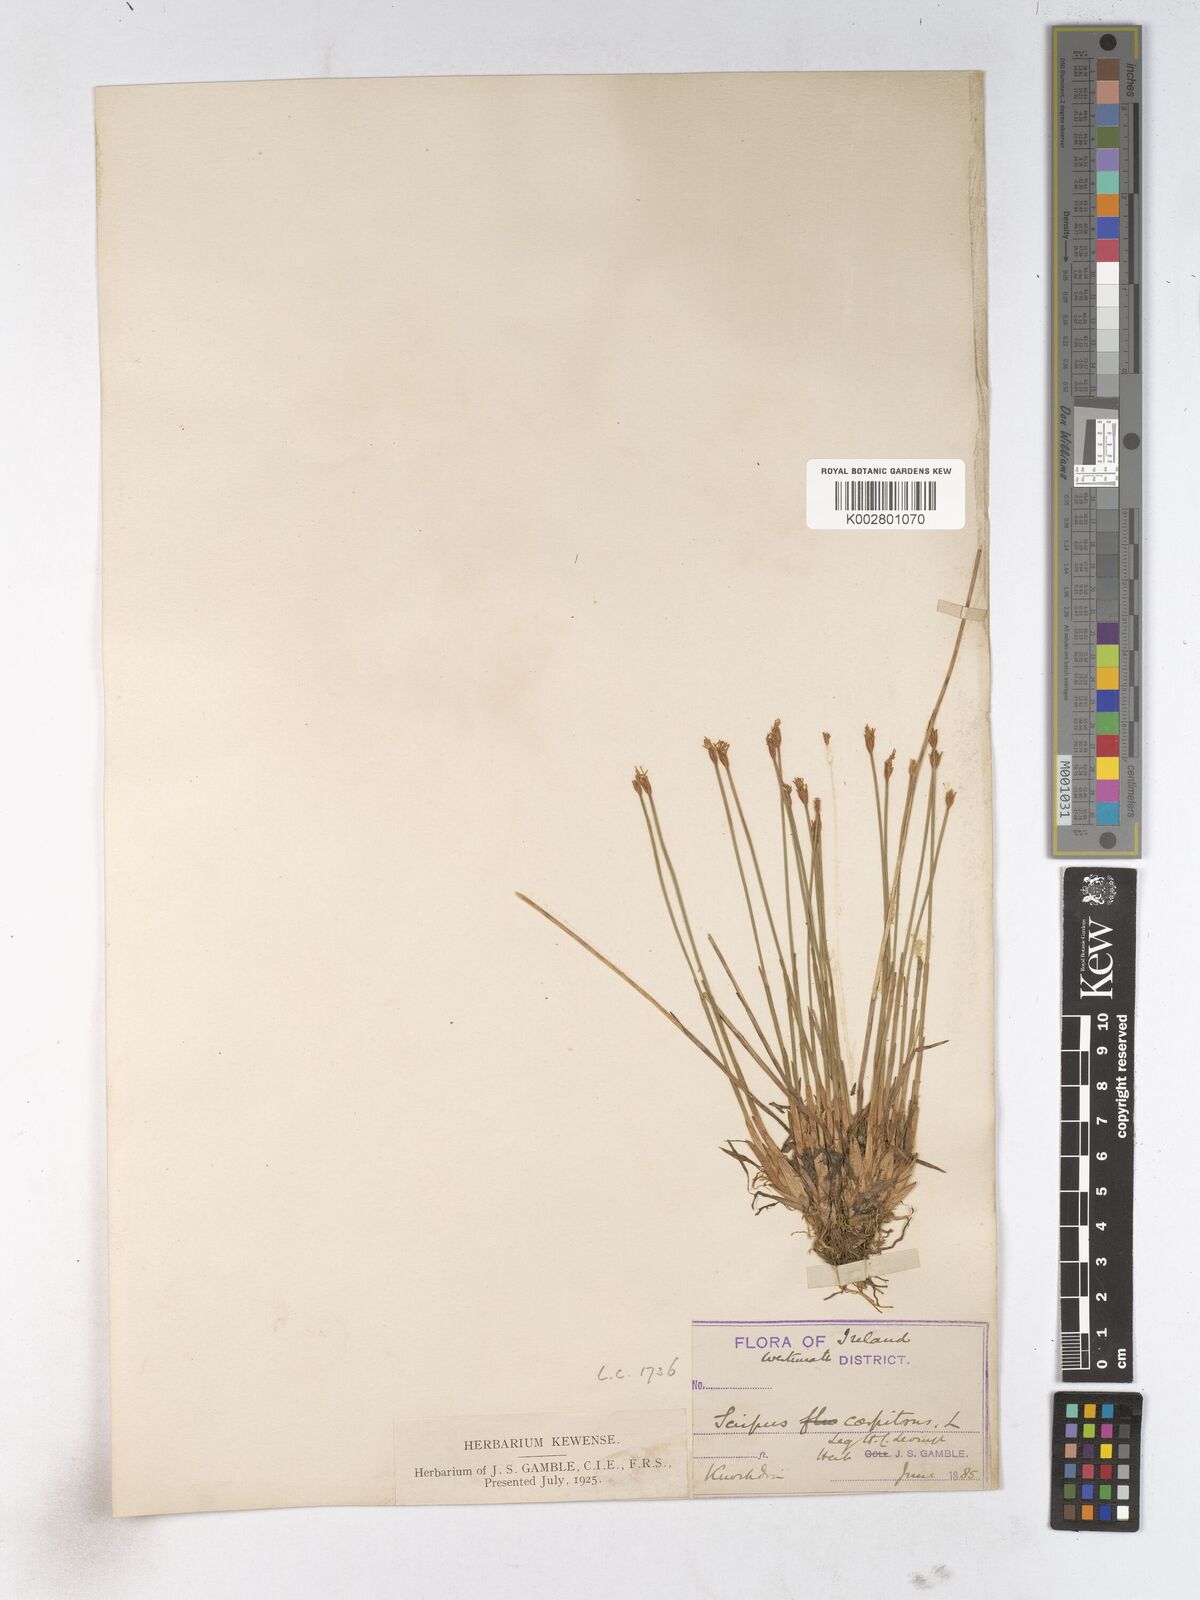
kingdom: Plantae
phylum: Tracheophyta
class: Liliopsida
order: Poales
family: Cyperaceae
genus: Trichophorum
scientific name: Trichophorum cespitosum
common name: Cespitose bulrush
